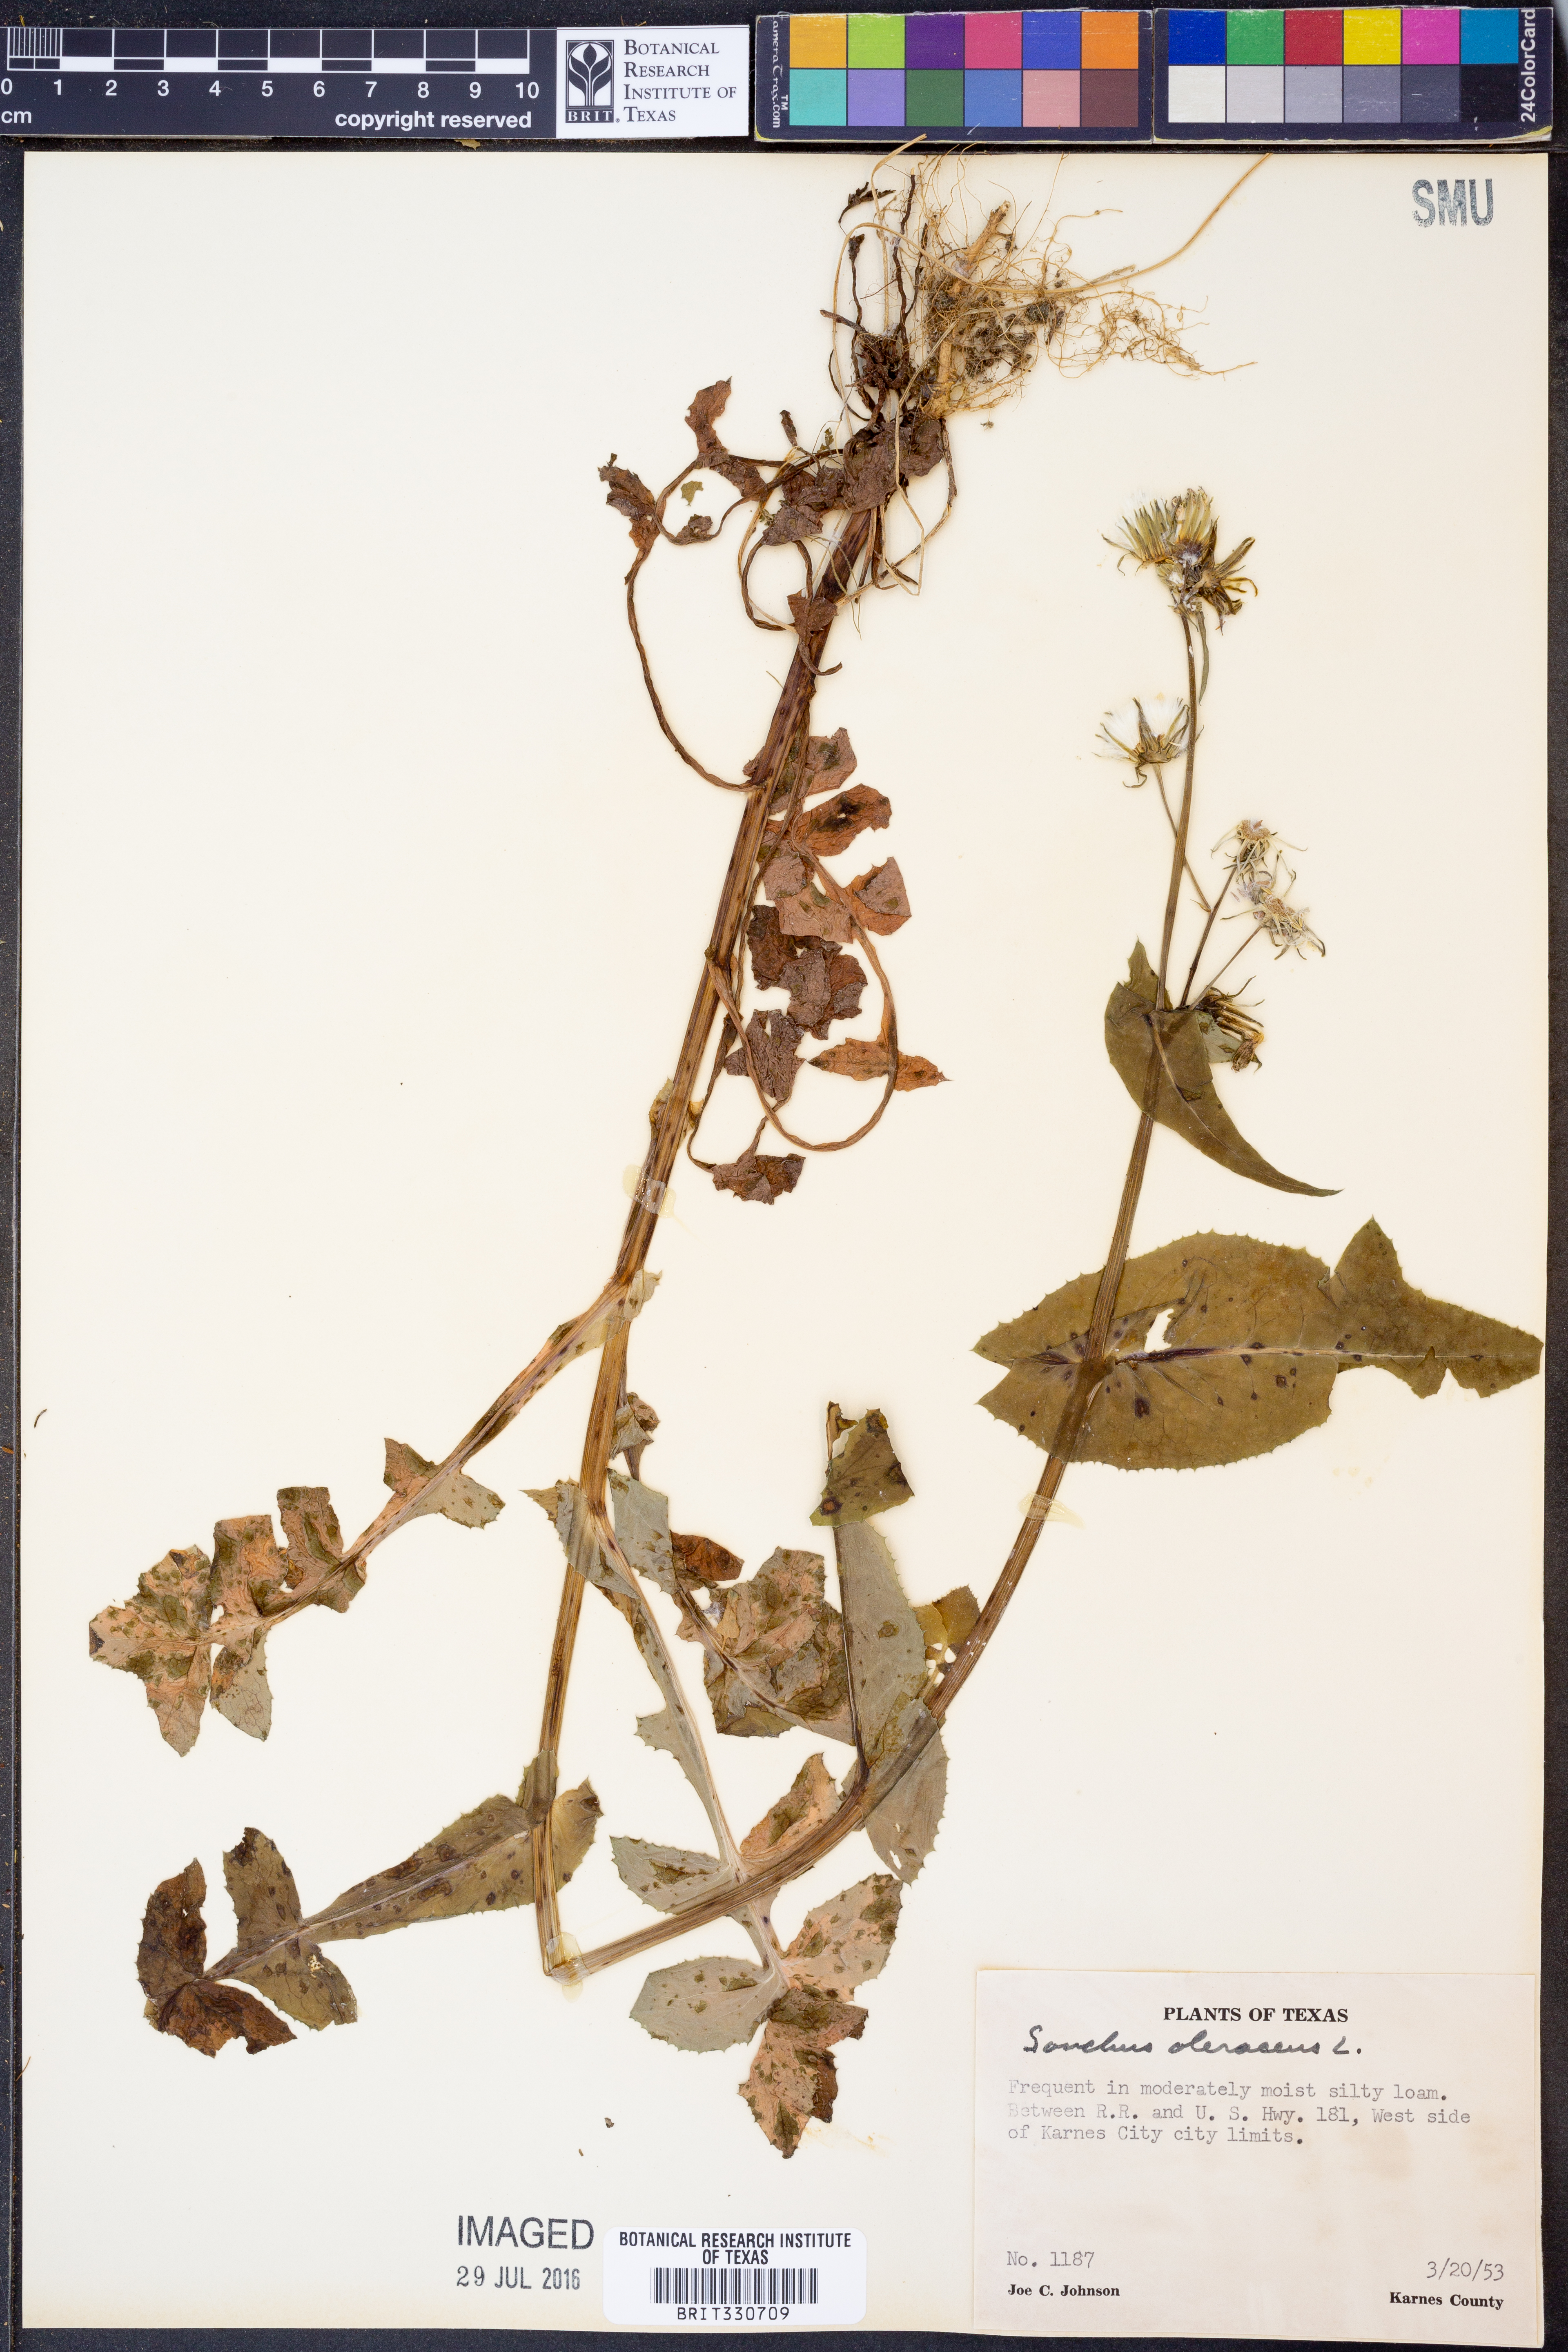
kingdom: Plantae
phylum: Tracheophyta
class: Magnoliopsida
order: Asterales
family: Asteraceae
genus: Sonchus
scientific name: Sonchus oleraceus
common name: Common sowthistle
